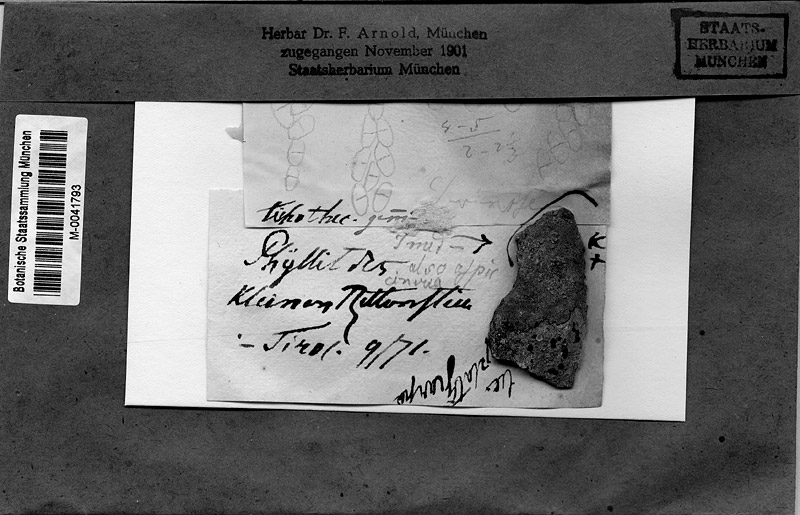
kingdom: Fungi
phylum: Ascomycota
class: Dothideomycetes
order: Dothideales
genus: Endococcus
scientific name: Endococcus
